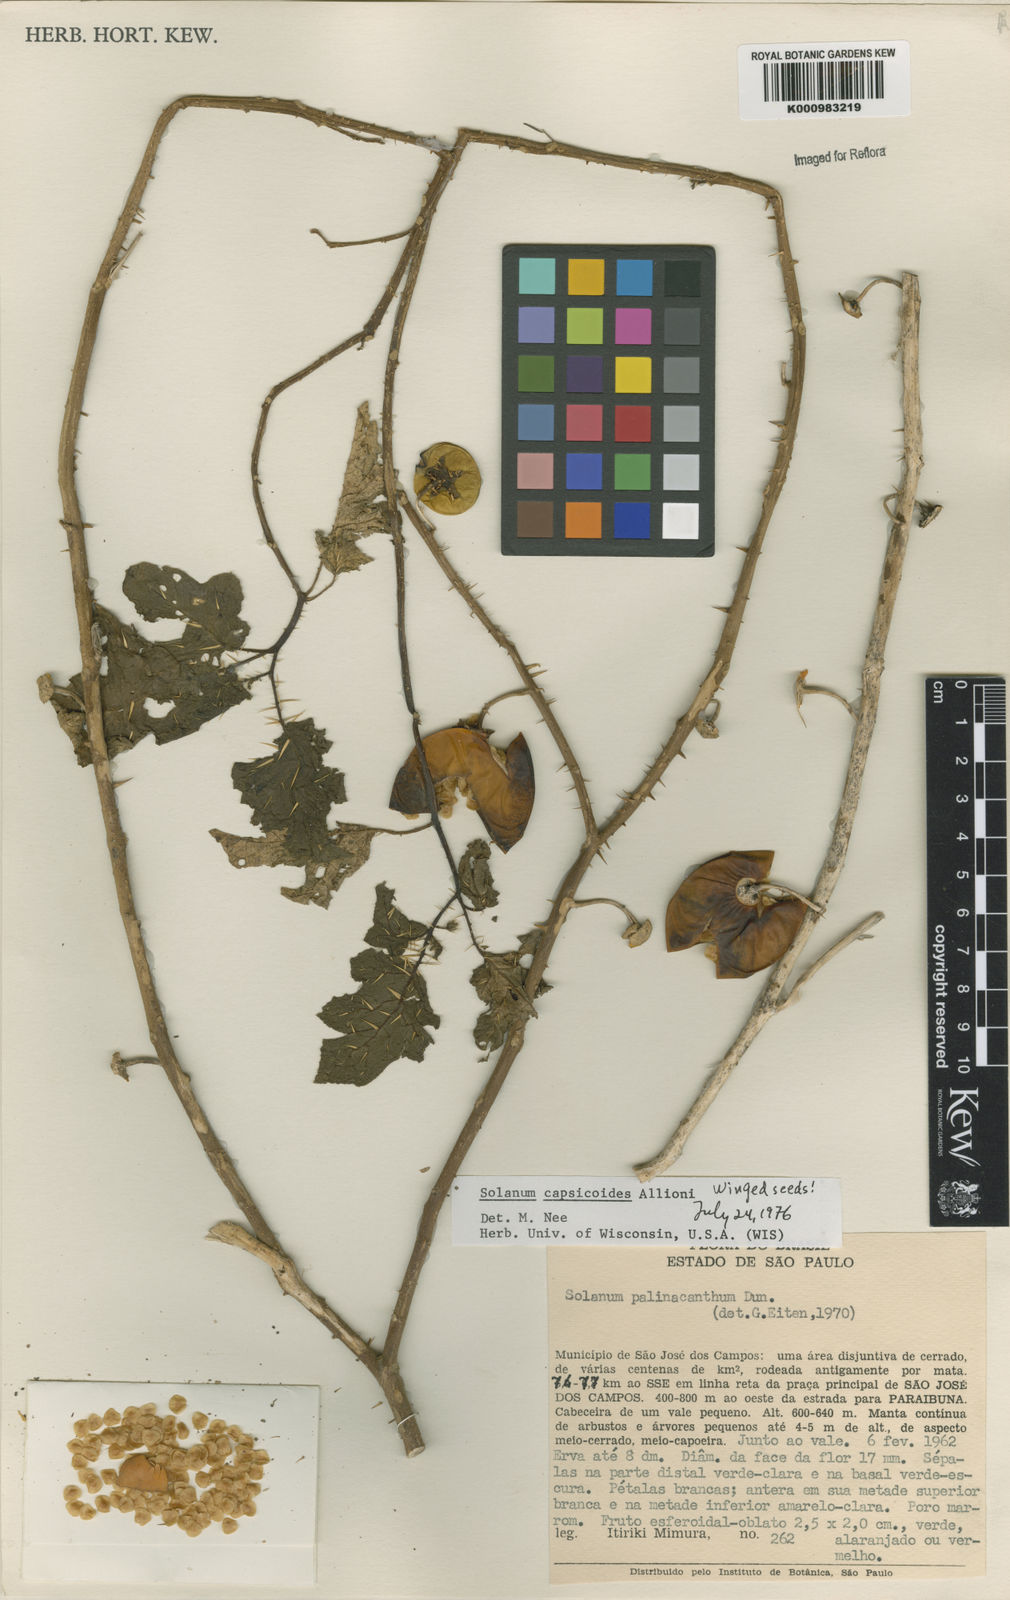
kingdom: Plantae
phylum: Tracheophyta
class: Magnoliopsida
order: Solanales
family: Solanaceae
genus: Solanum
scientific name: Solanum capsicoides
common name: Cockroach berry
